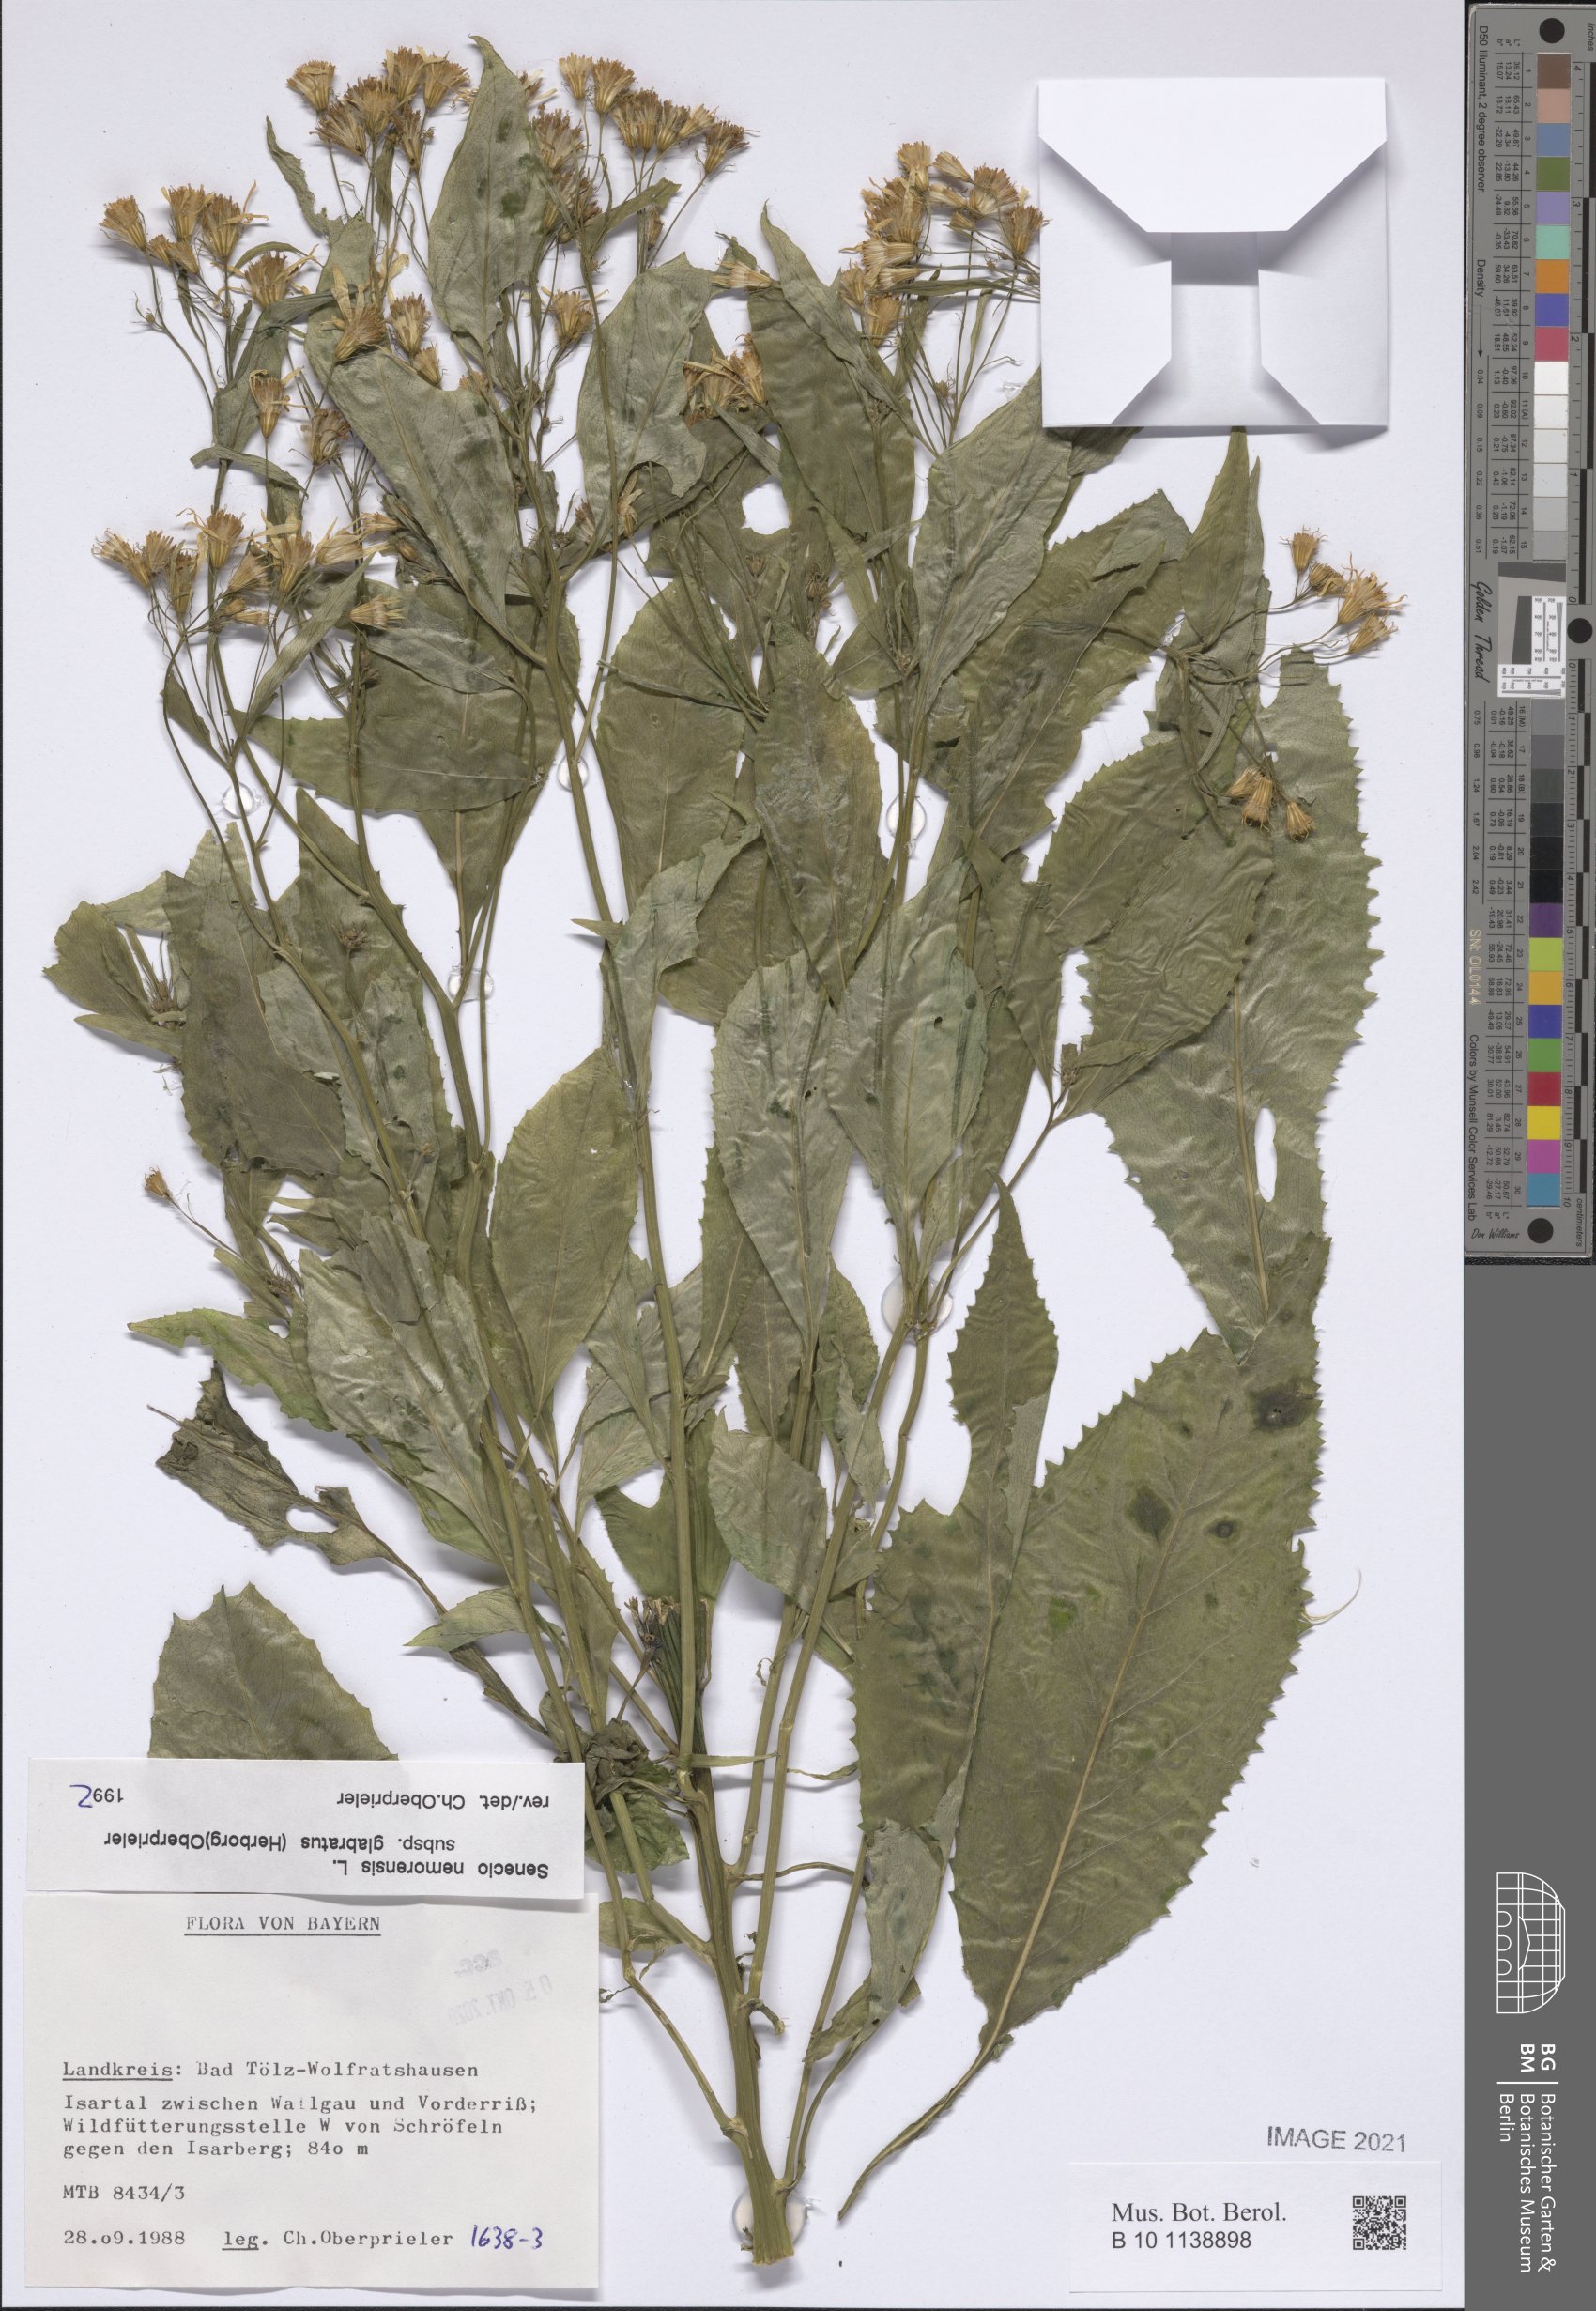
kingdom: Plantae
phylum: Tracheophyta
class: Magnoliopsida
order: Asterales
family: Asteraceae
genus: Senecio
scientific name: Senecio germanicus
